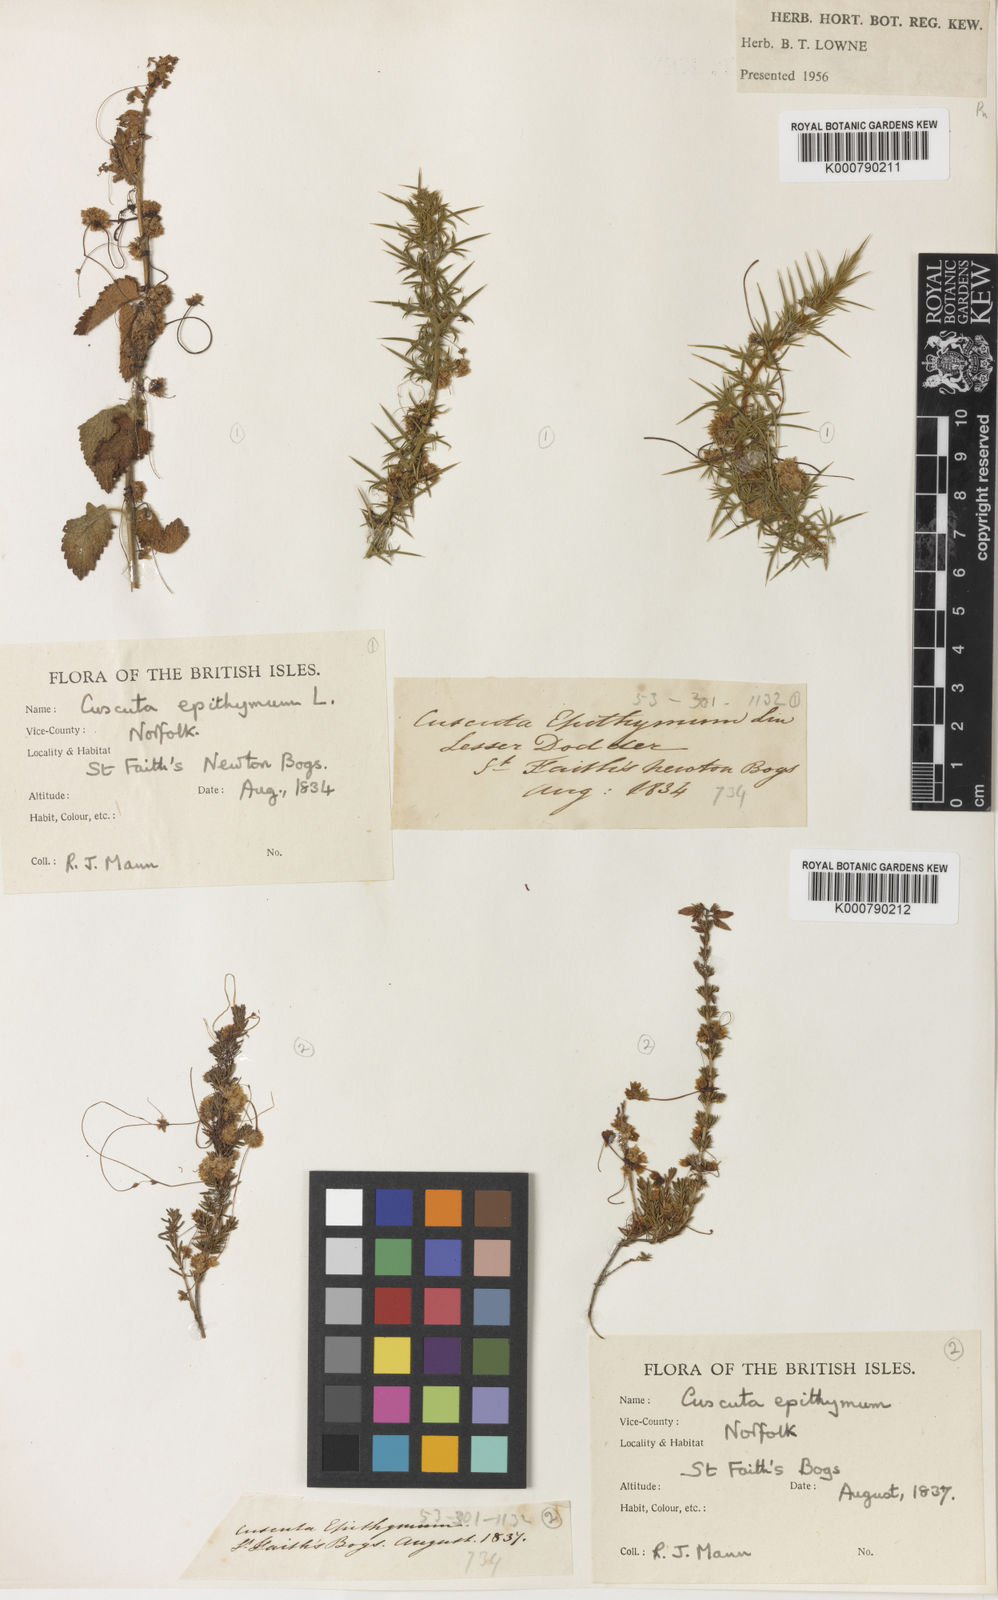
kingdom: Plantae
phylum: Tracheophyta
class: Magnoliopsida
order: Solanales
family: Convolvulaceae
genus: Cuscuta
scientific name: Cuscuta epithymum
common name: Clover dodder
